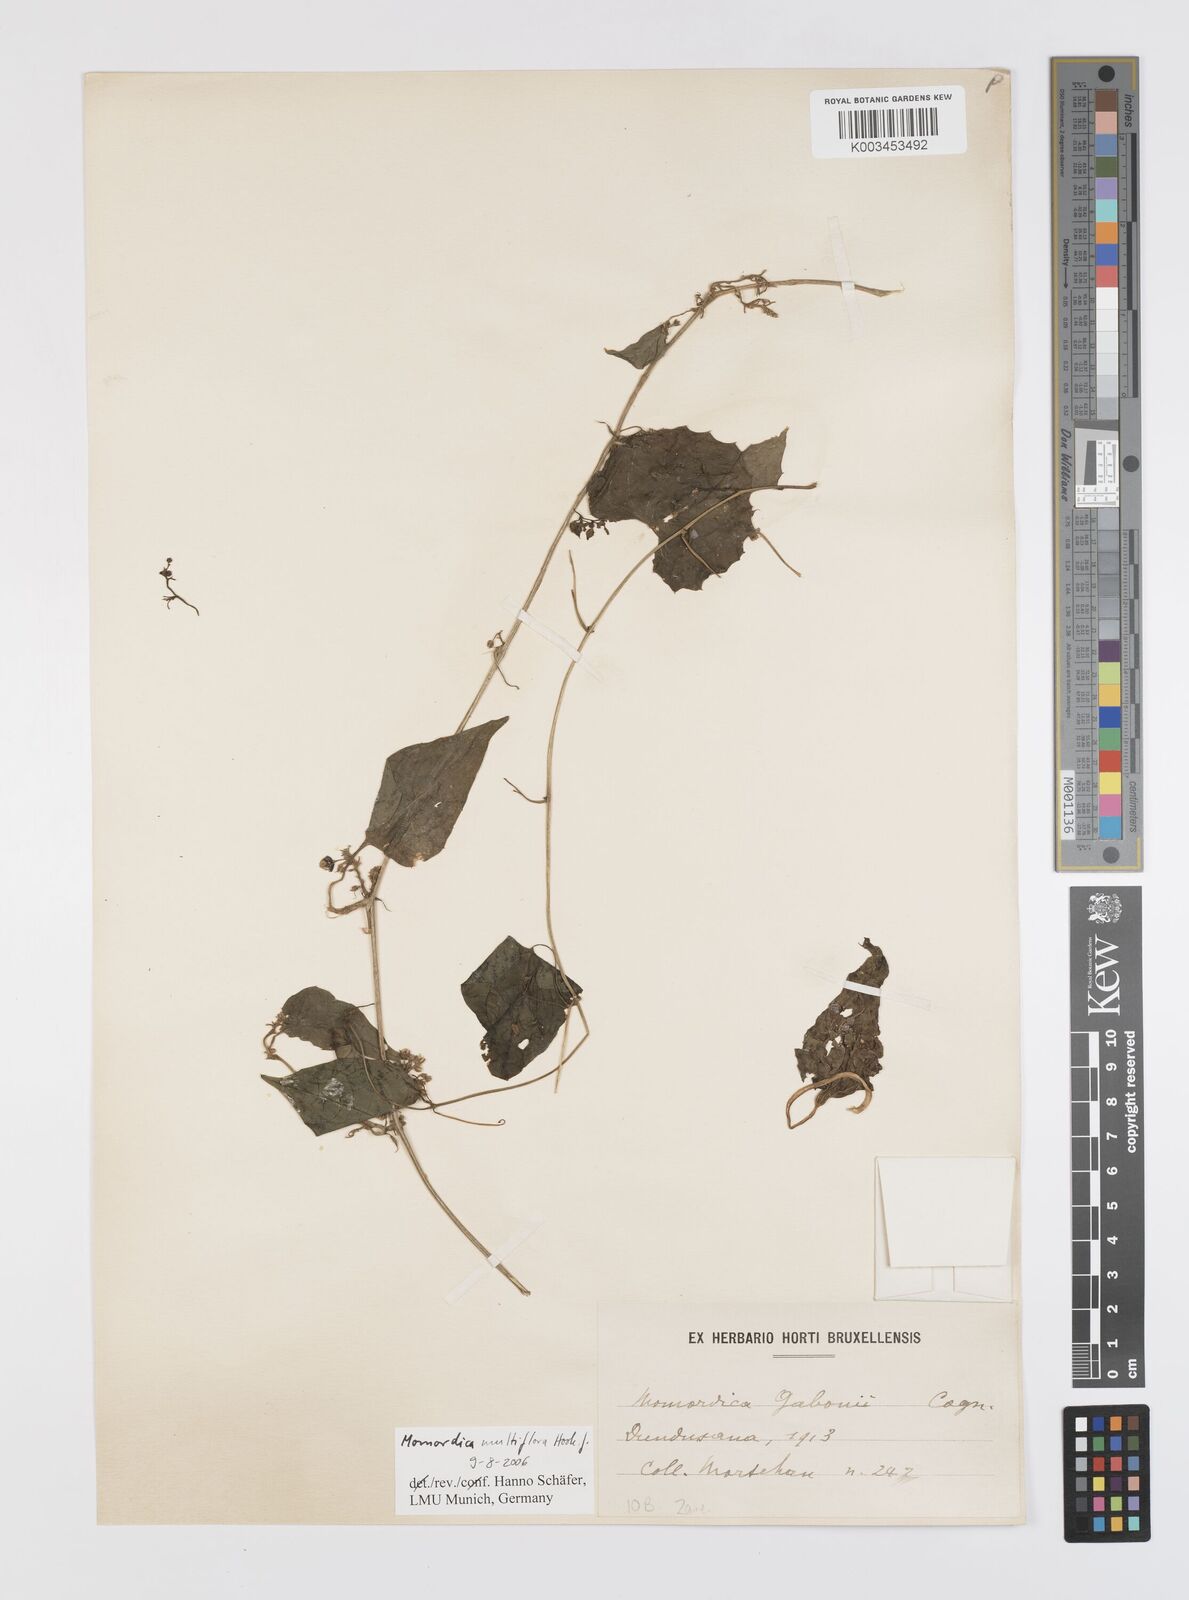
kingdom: Plantae
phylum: Tracheophyta
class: Magnoliopsida
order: Cucurbitales
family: Cucurbitaceae
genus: Momordica
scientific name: Momordica multiflora
